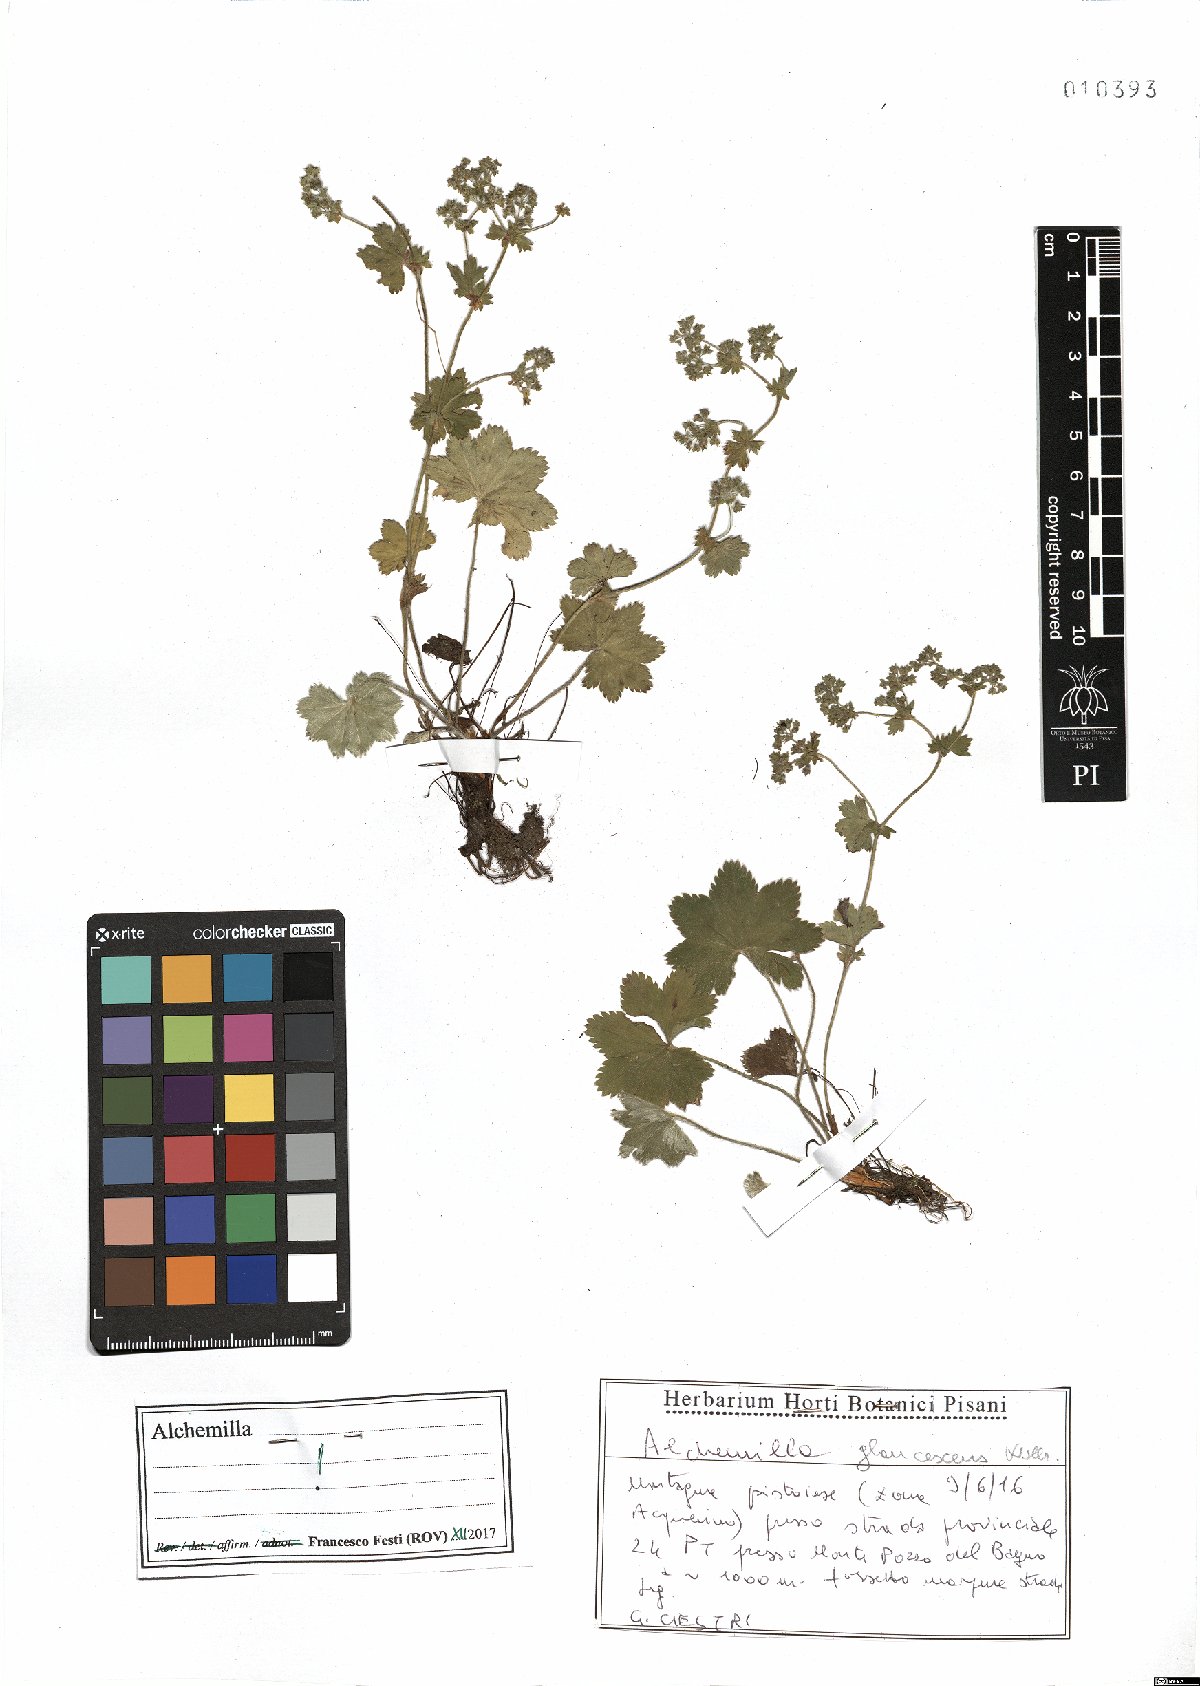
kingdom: Plantae
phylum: Tracheophyta
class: Magnoliopsida
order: Rosales
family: Rosaceae
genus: Alchemilla
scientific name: Alchemilla glaucescens
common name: Silky lady's mantle
